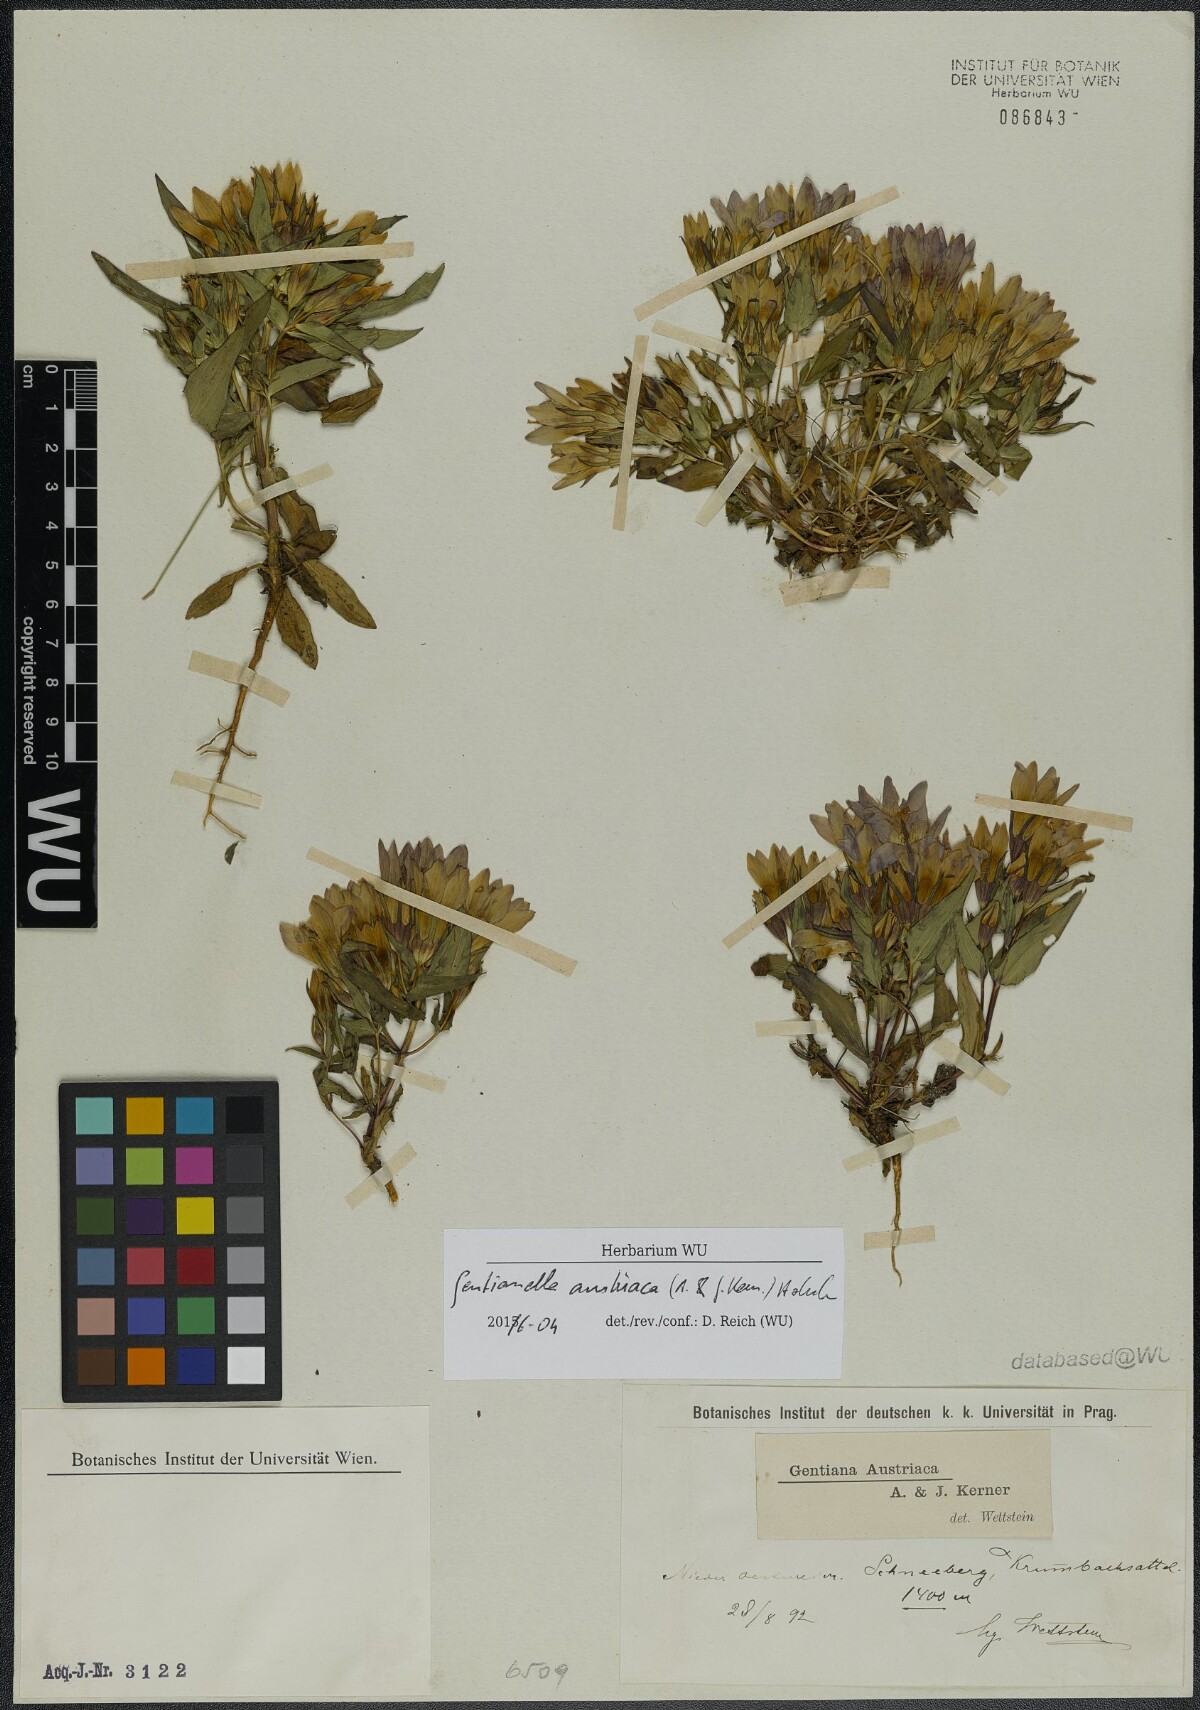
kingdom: Plantae
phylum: Tracheophyta
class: Magnoliopsida
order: Gentianales
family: Gentianaceae
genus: Gentianella
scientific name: Gentianella austriaca
